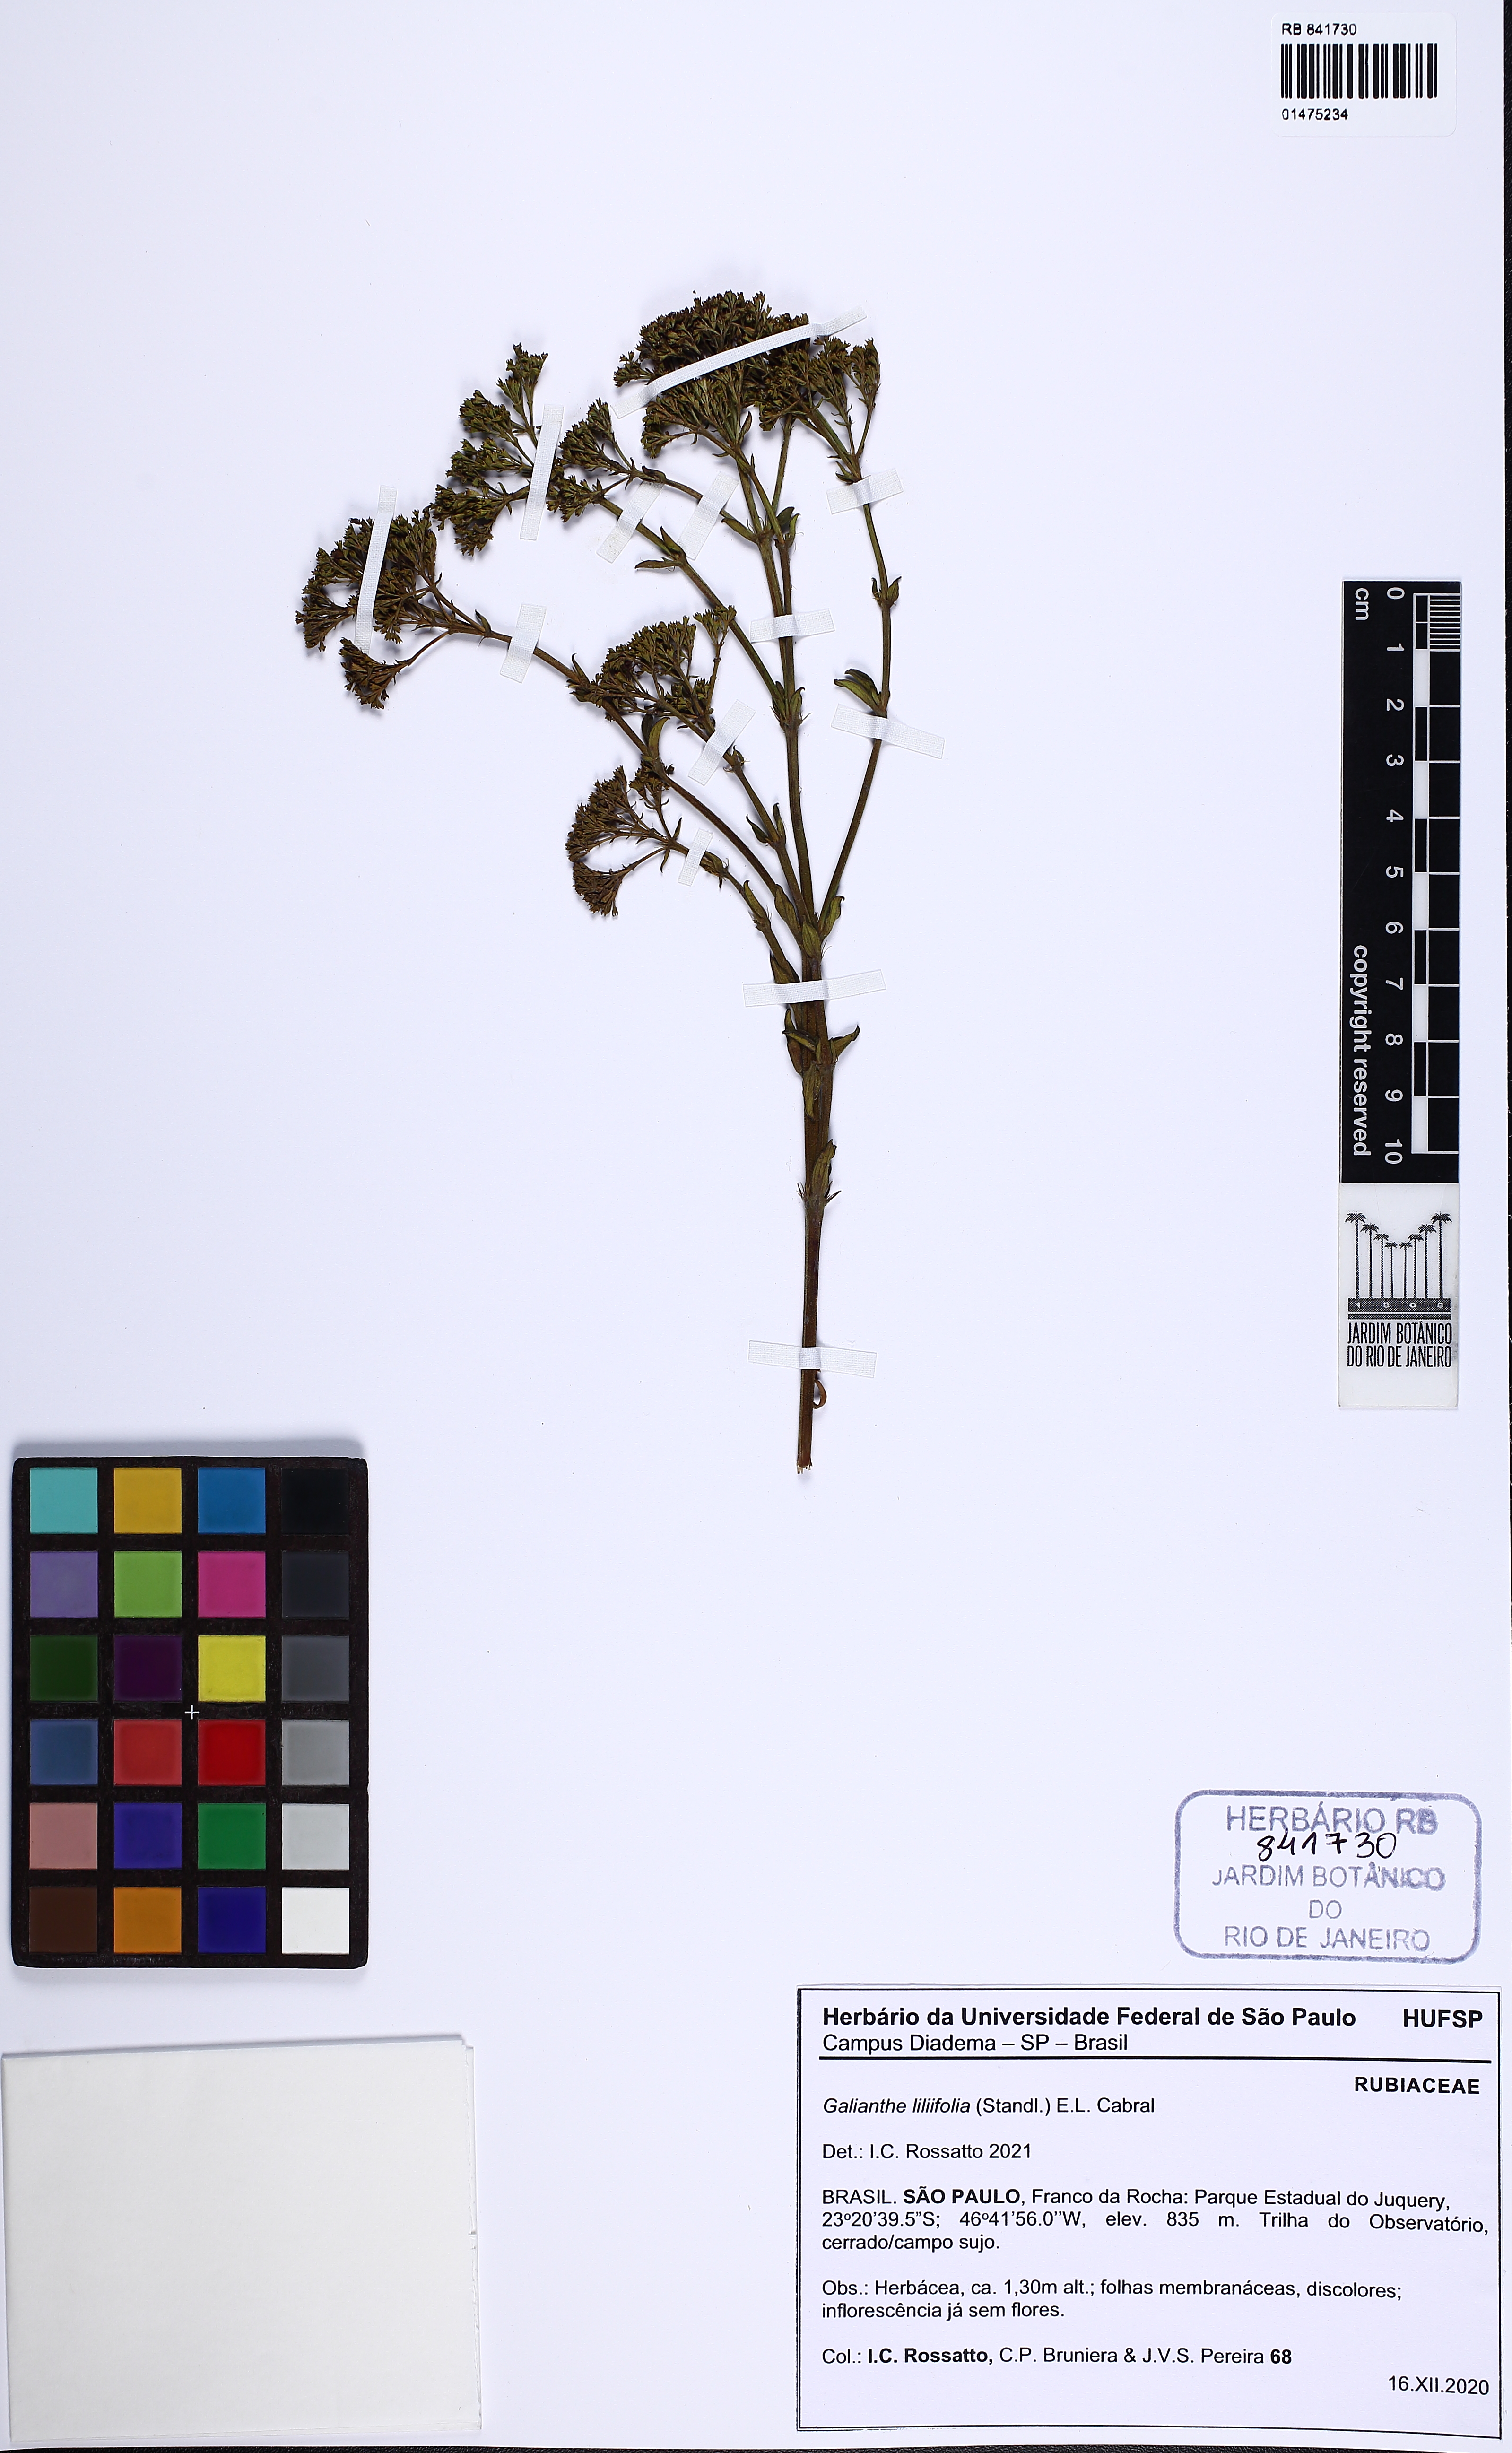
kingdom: Plantae
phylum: Tracheophyta
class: Magnoliopsida
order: Gentianales
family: Rubiaceae
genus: Galianthe
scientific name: Galianthe liliifolia
